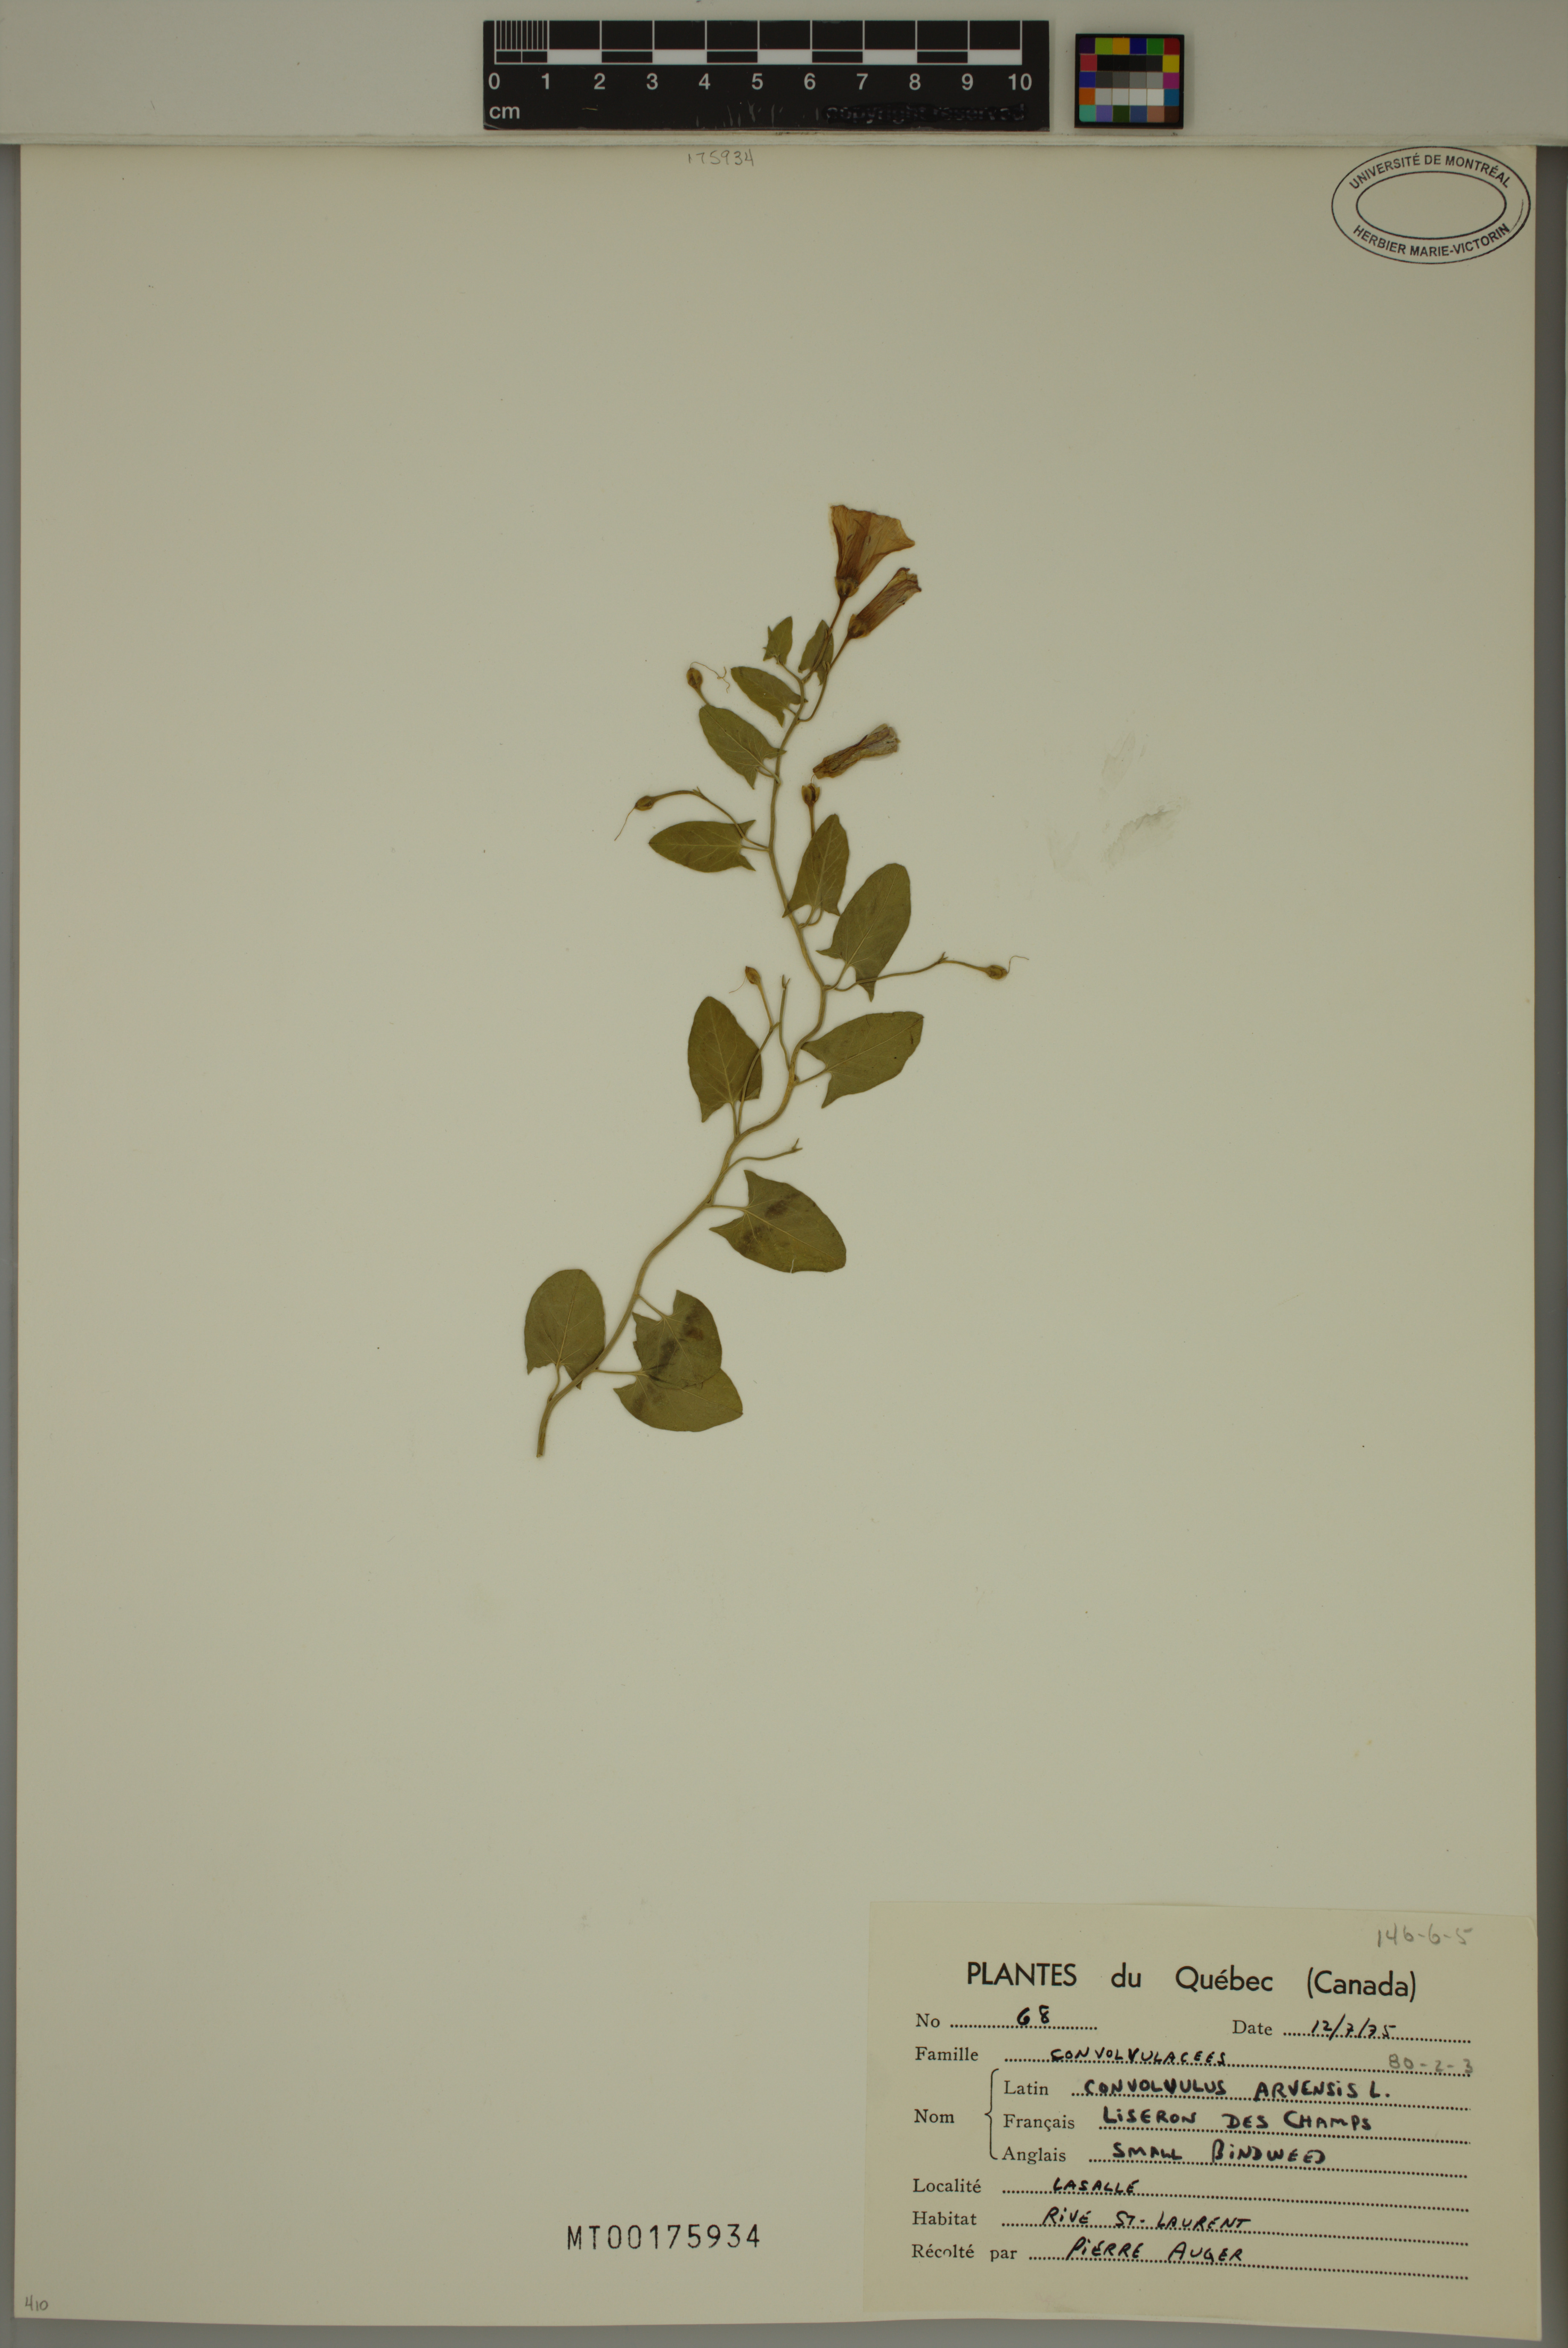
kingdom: Plantae
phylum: Tracheophyta
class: Magnoliopsida
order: Solanales
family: Convolvulaceae
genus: Convolvulus
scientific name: Convolvulus arvensis
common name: Field bindweed
